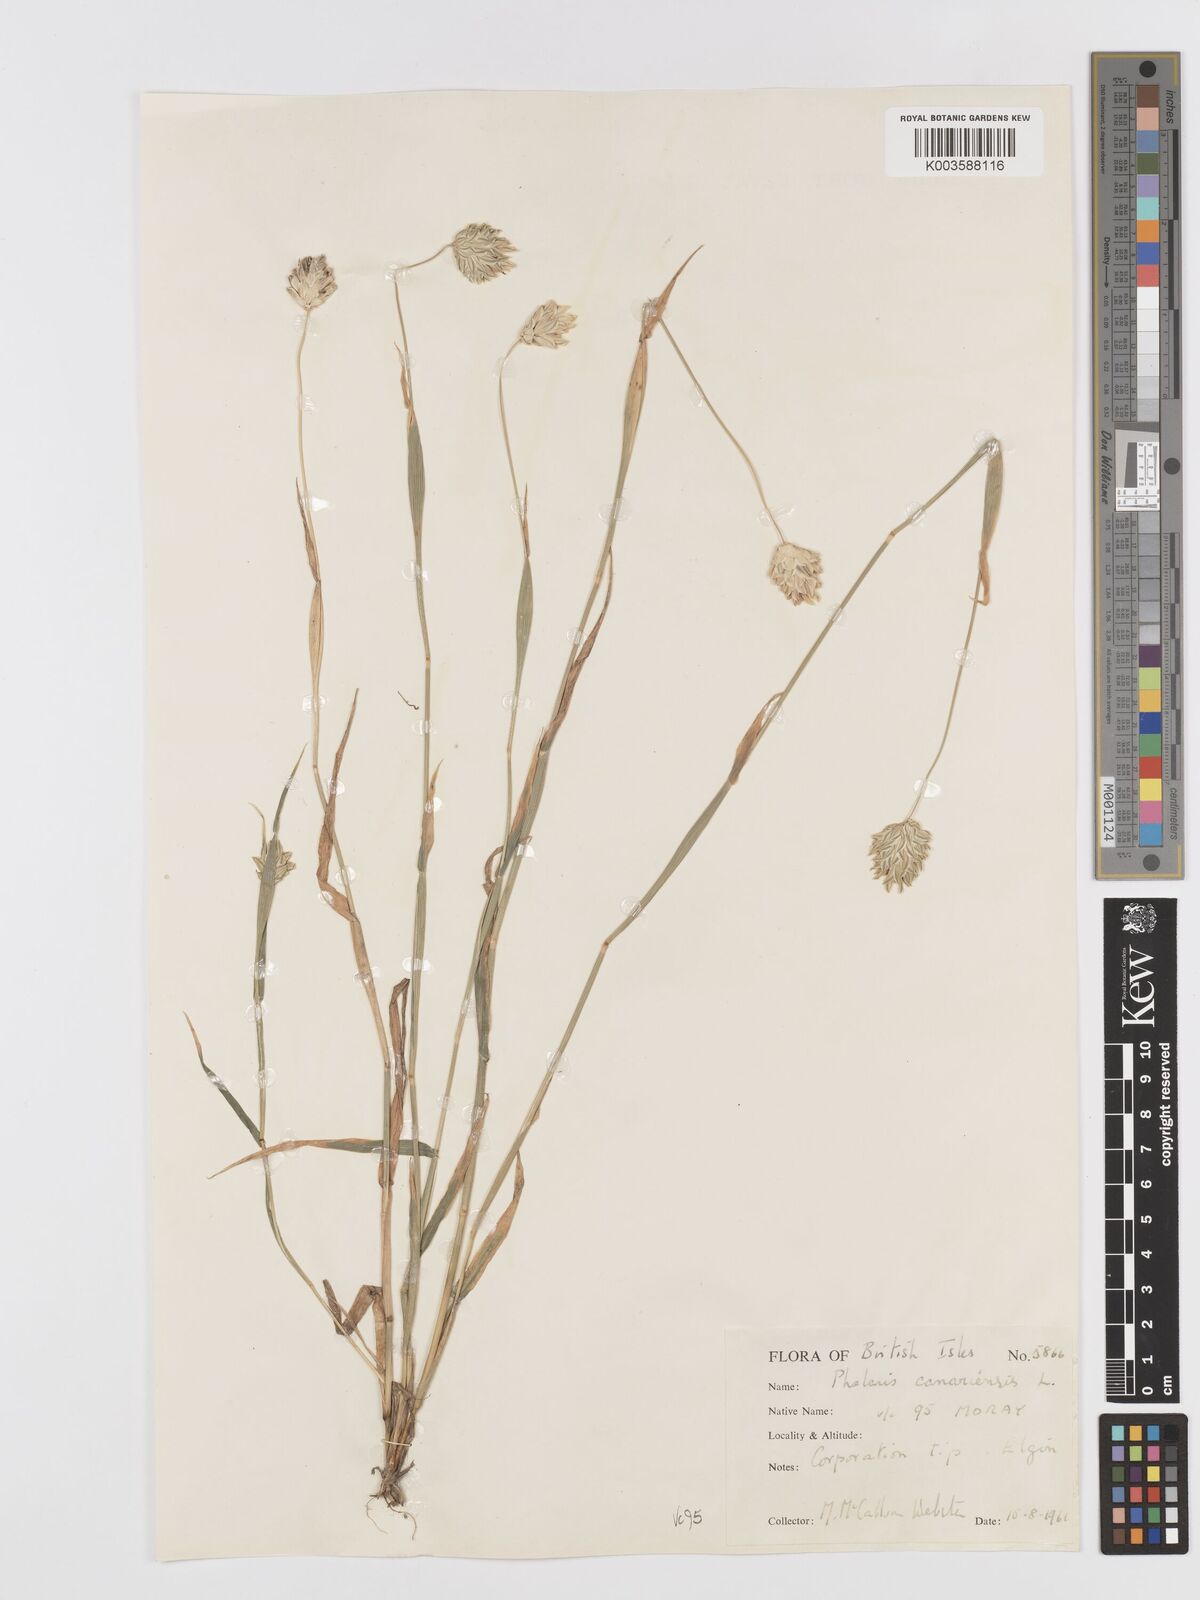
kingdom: Plantae
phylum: Tracheophyta
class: Liliopsida
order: Poales
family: Poaceae
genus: Phalaris
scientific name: Phalaris canariensis
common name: Annual canarygrass
